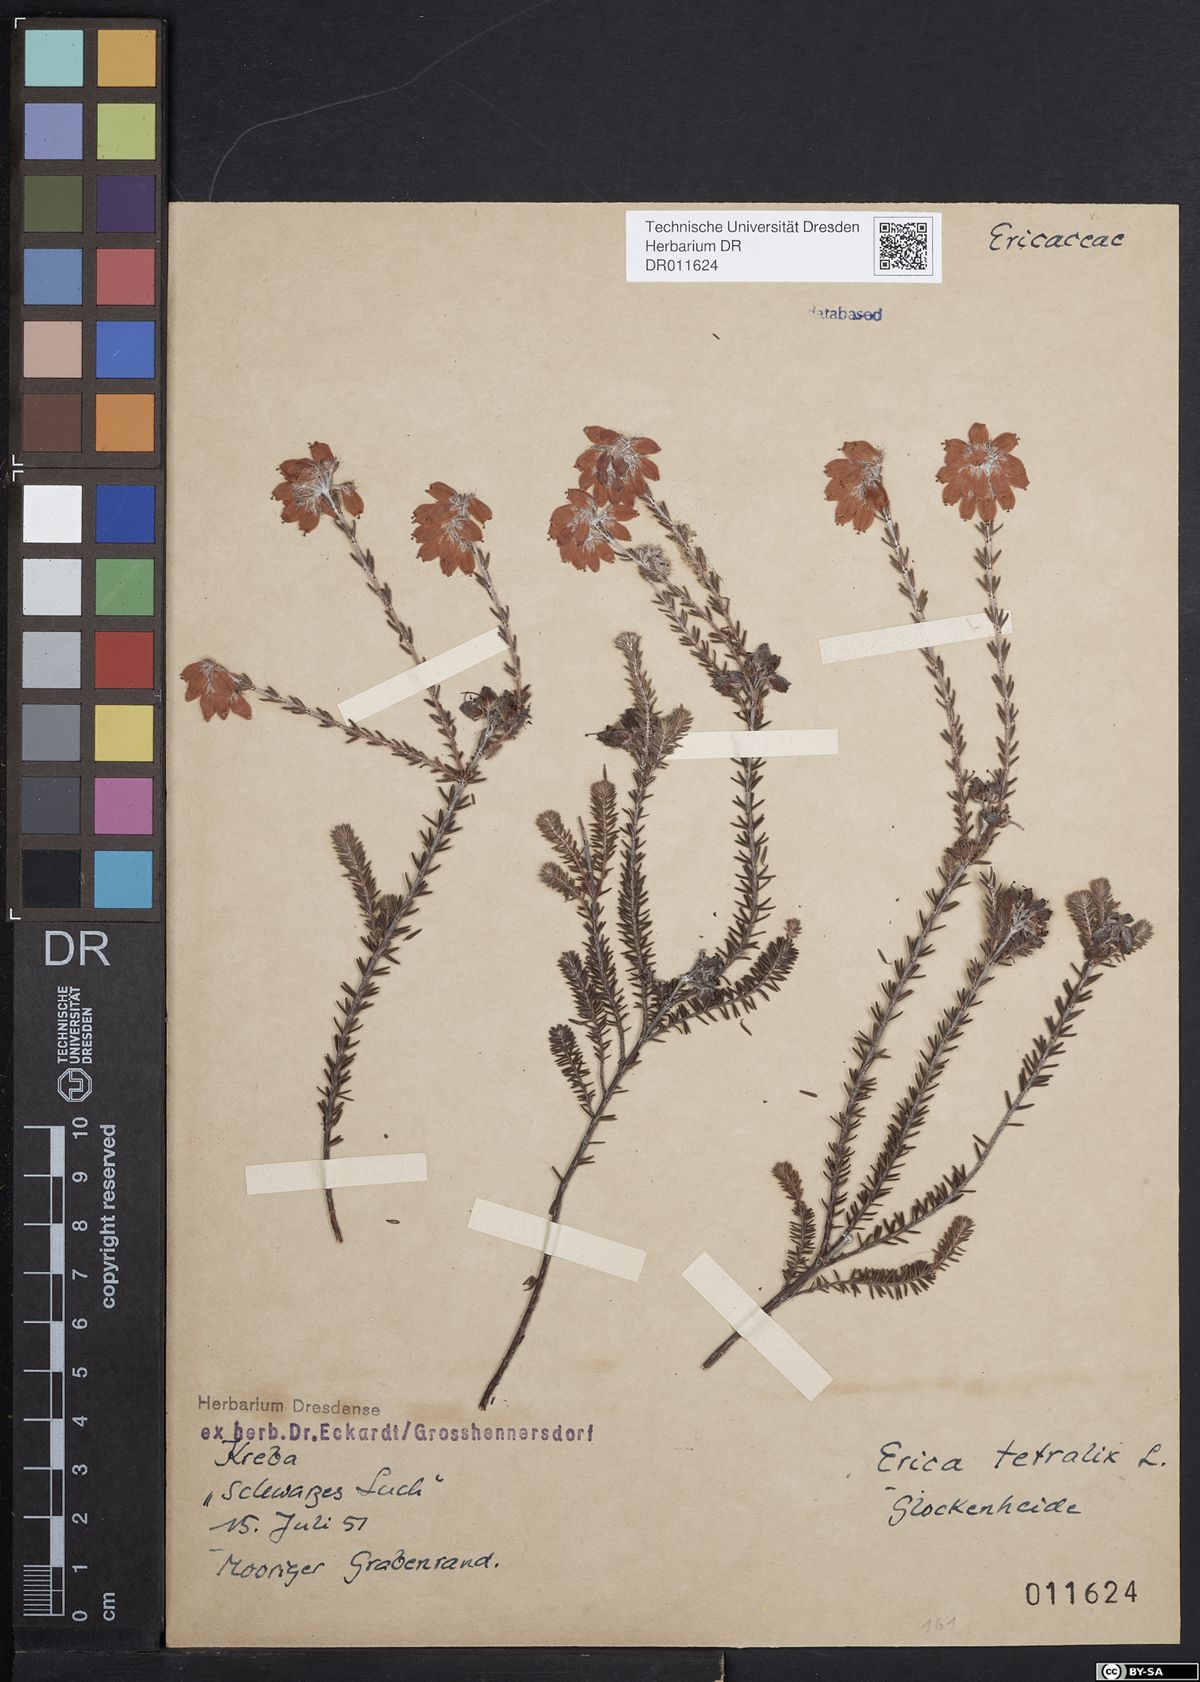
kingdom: Plantae
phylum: Tracheophyta
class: Magnoliopsida
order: Ericales
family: Ericaceae
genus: Erica
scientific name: Erica tetralix
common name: Cross-leaved heath
